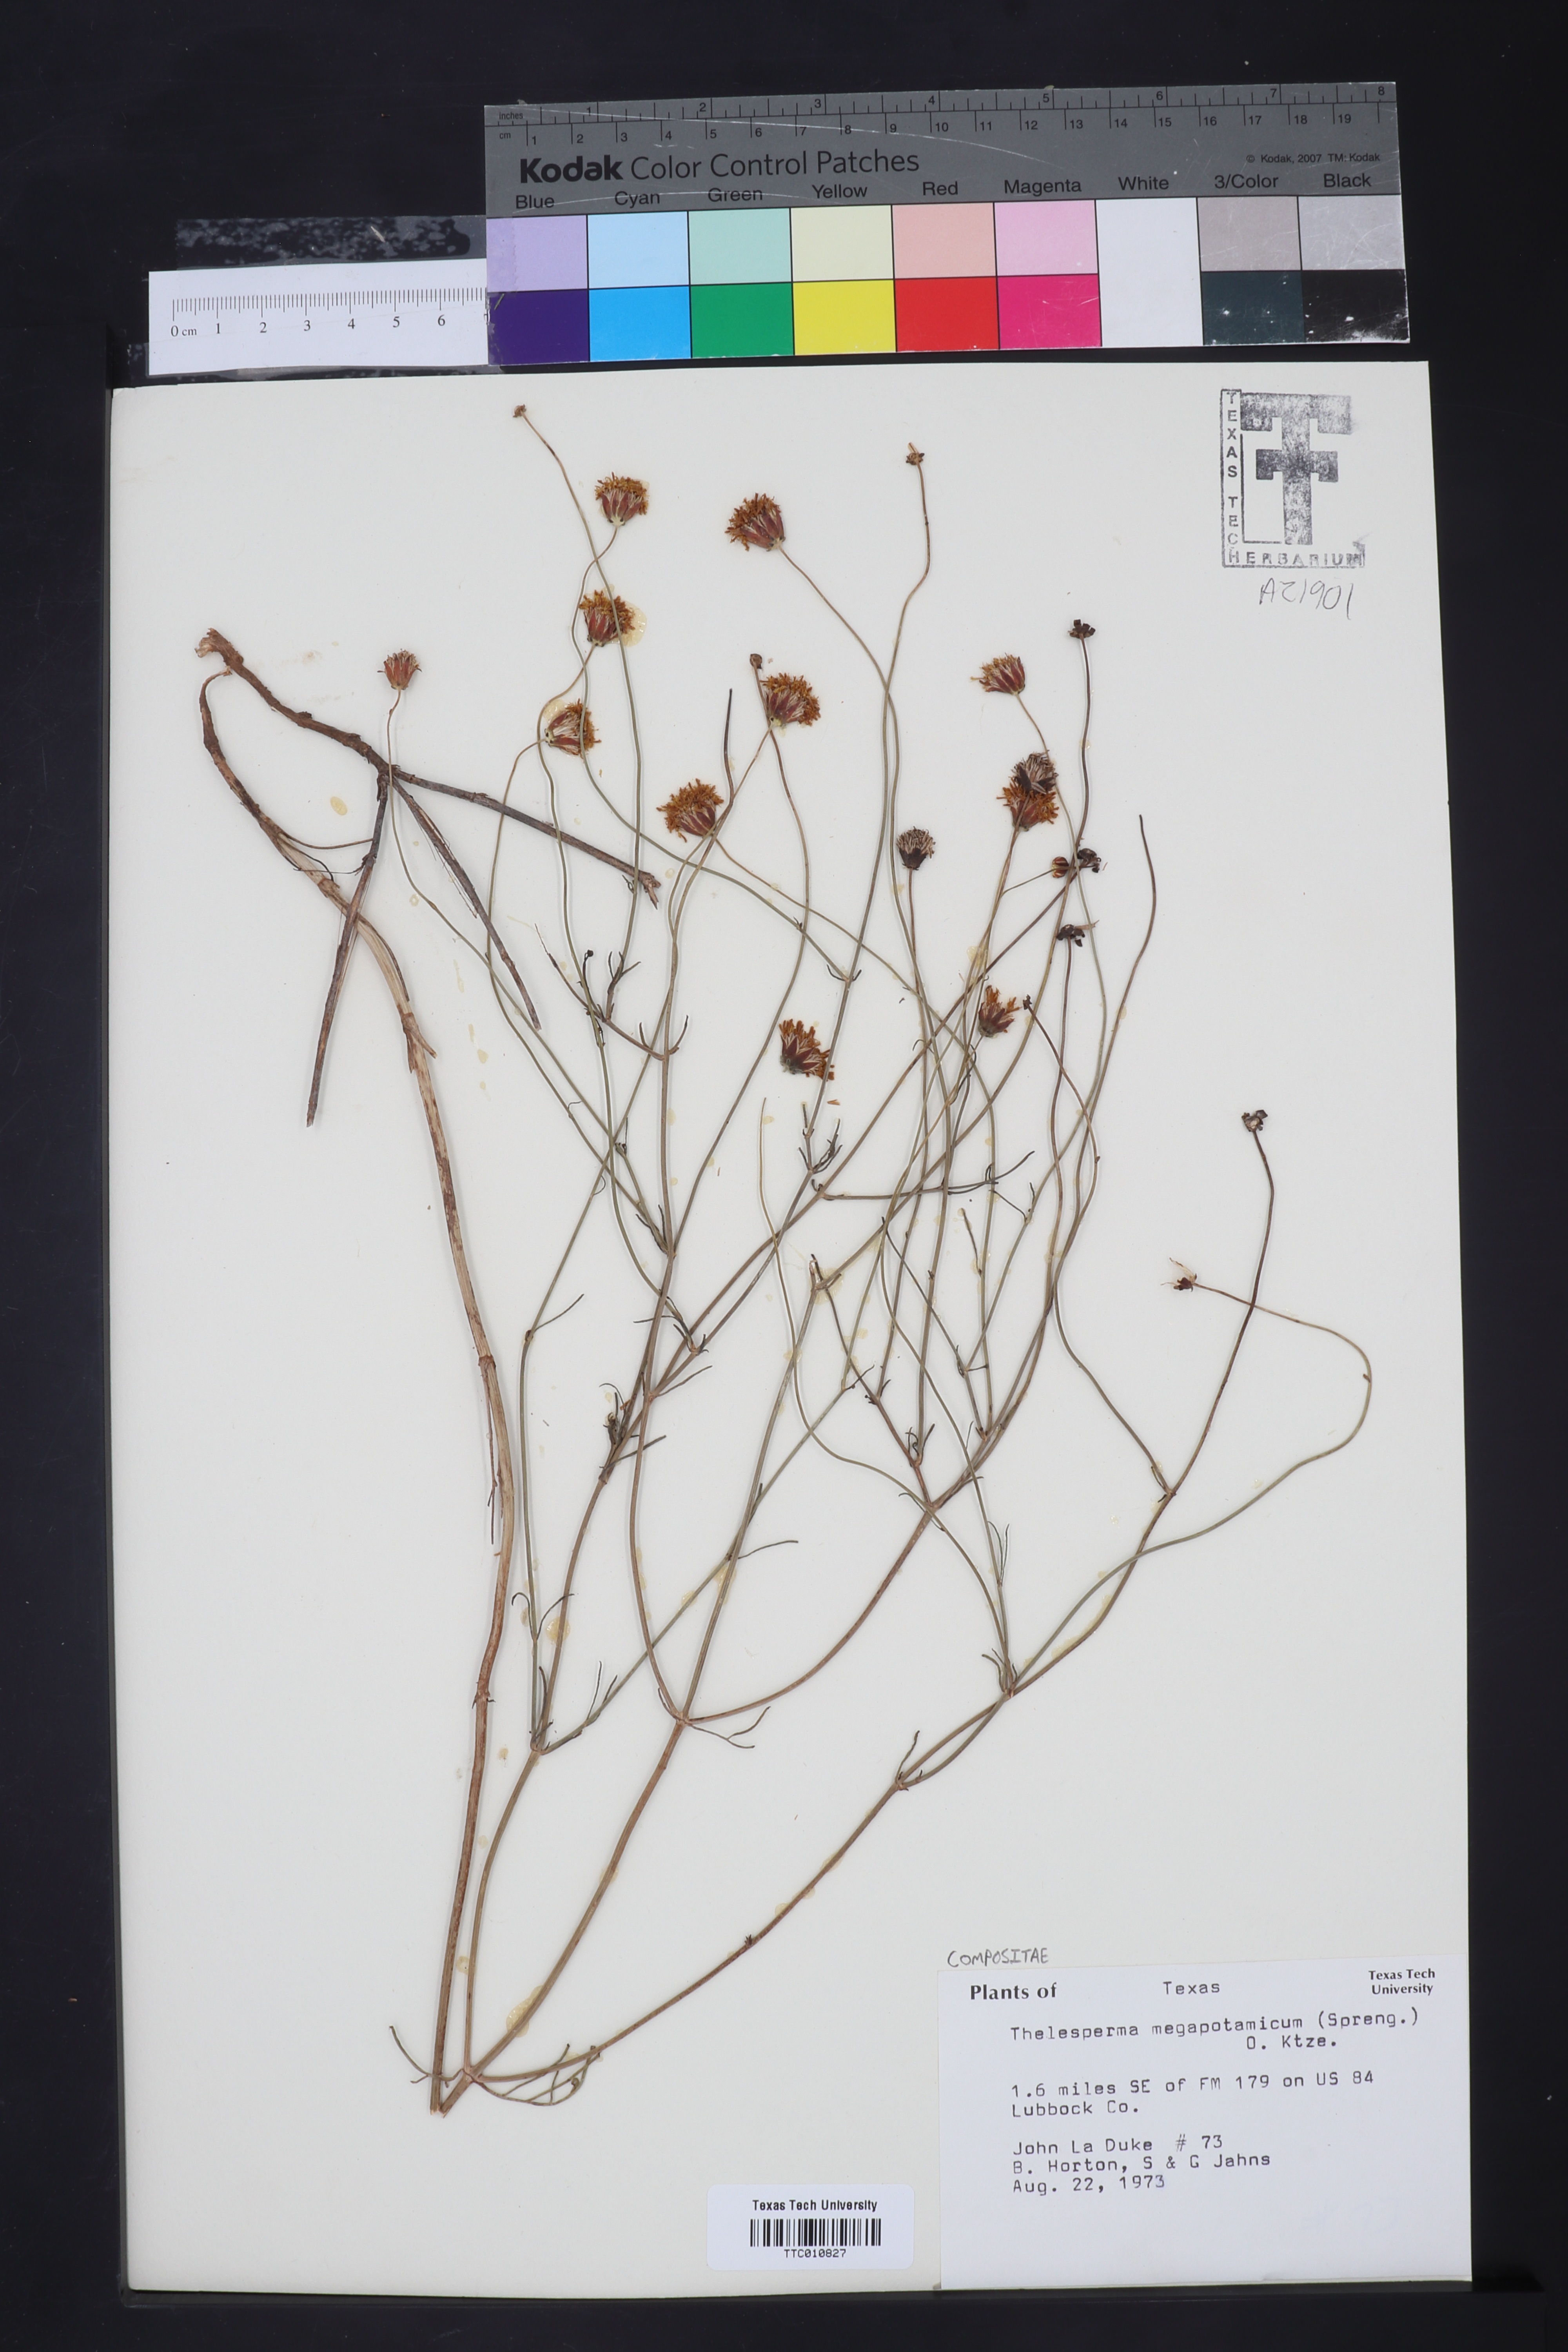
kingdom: Plantae
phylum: Tracheophyta
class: Magnoliopsida
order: Asterales
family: Asteraceae
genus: Thelesperma
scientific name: Thelesperma megapotamicum
